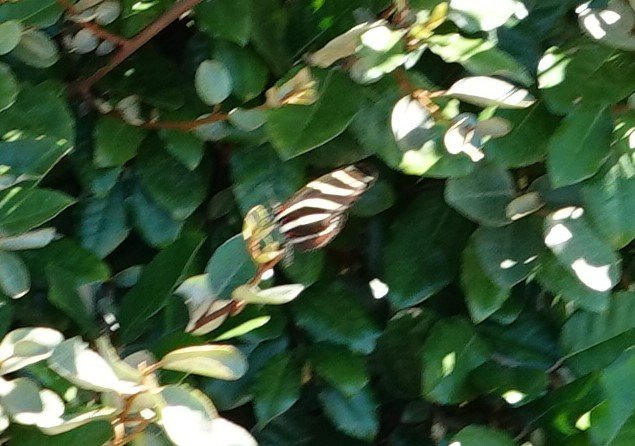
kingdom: Animalia
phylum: Arthropoda
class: Insecta
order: Lepidoptera
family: Nymphalidae
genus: Heliconius
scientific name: Heliconius charithonia
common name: Zebra Longwing
